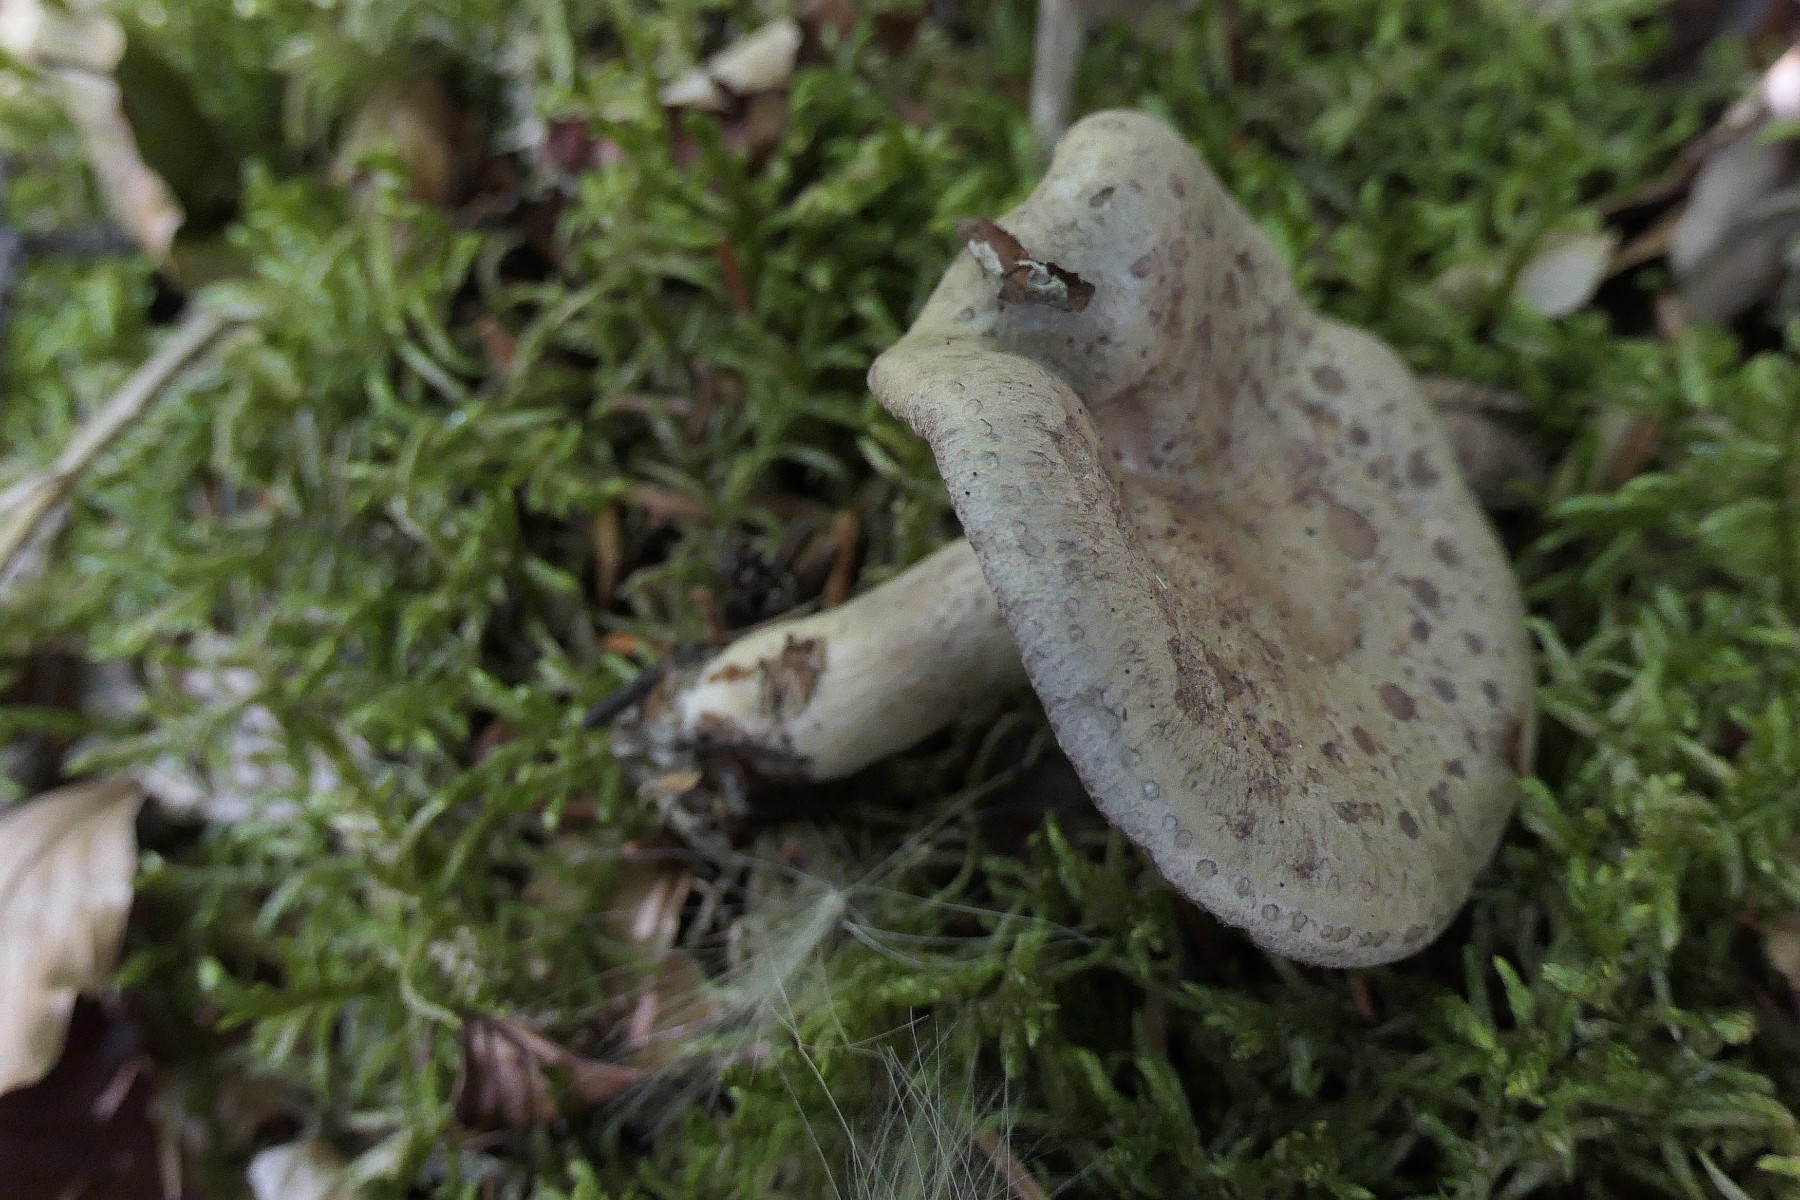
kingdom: Fungi
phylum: Basidiomycota
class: Agaricomycetes
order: Russulales
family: Russulaceae
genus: Lactarius
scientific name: Lactarius blennius
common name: dråbeplettet mælkehat
